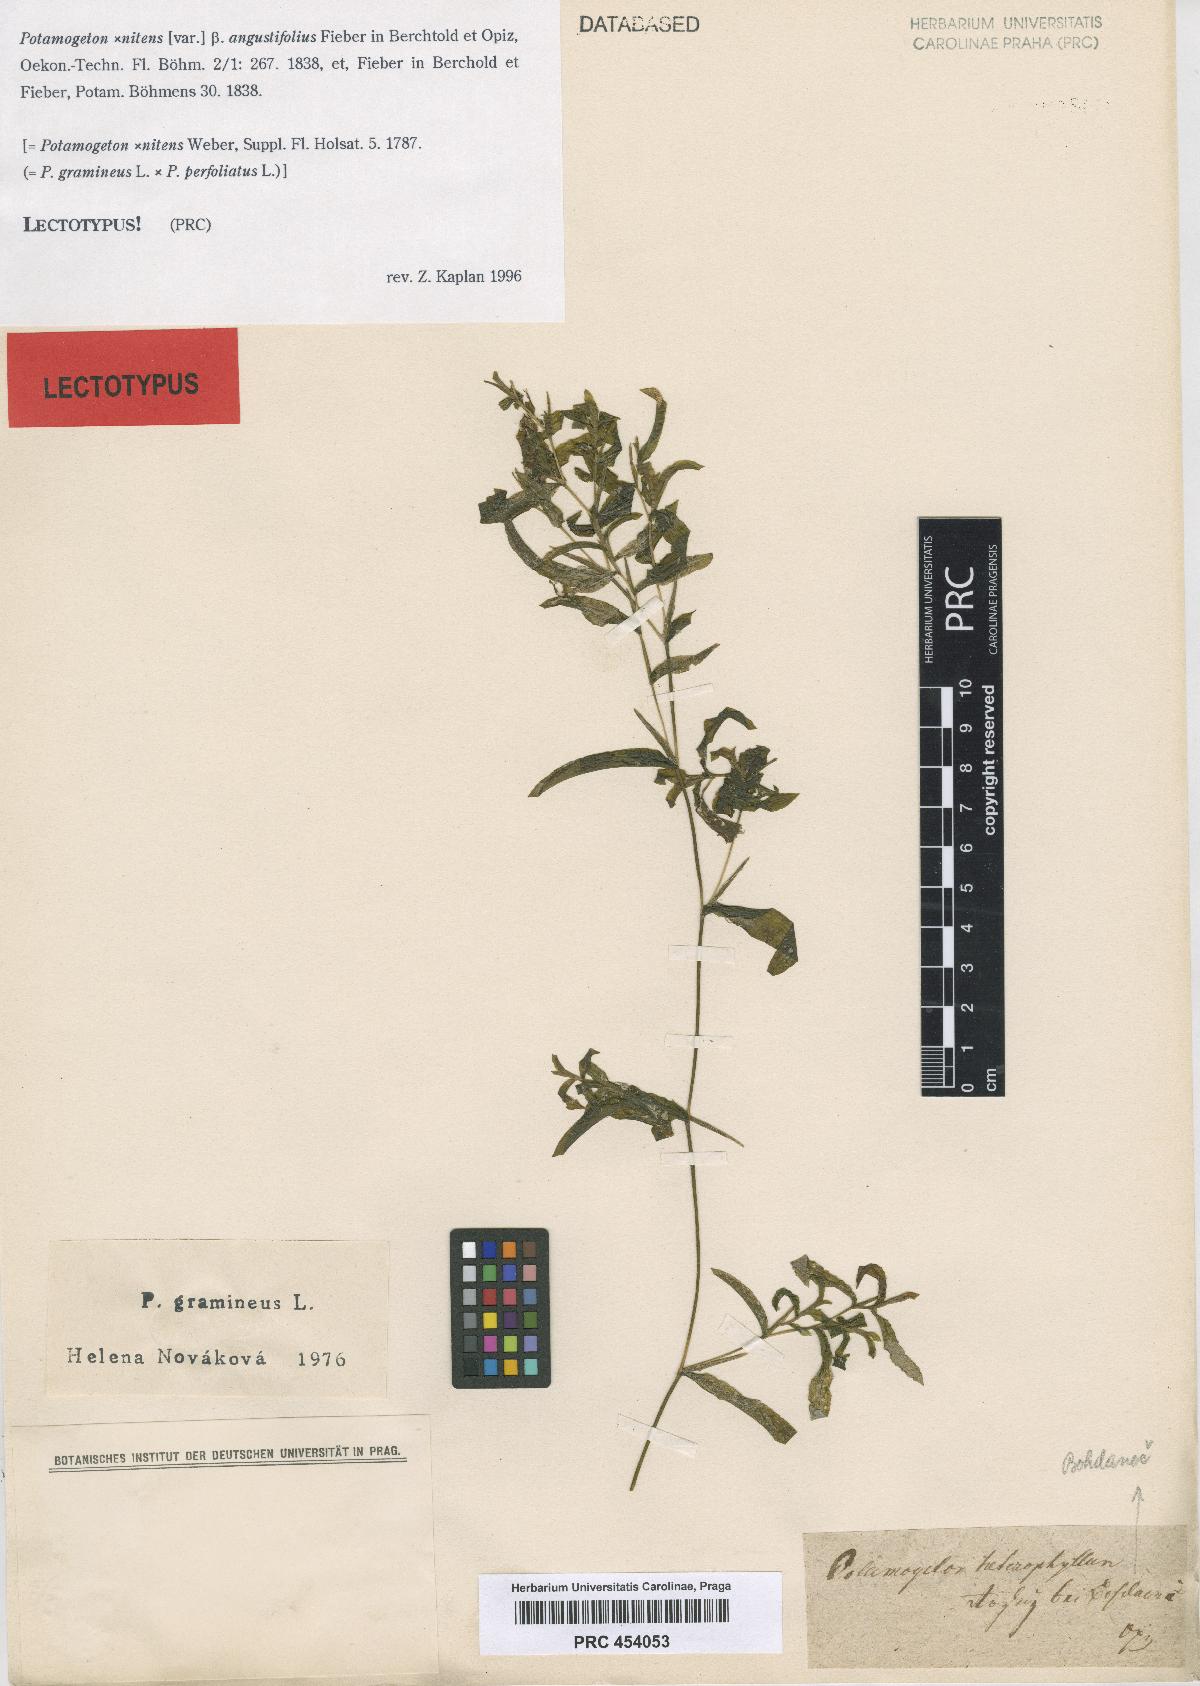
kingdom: Plantae
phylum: Tracheophyta
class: Liliopsida
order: Alismatales
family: Potamogetonaceae
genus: Potamogeton
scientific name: Potamogeton nitens
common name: Pondweed
